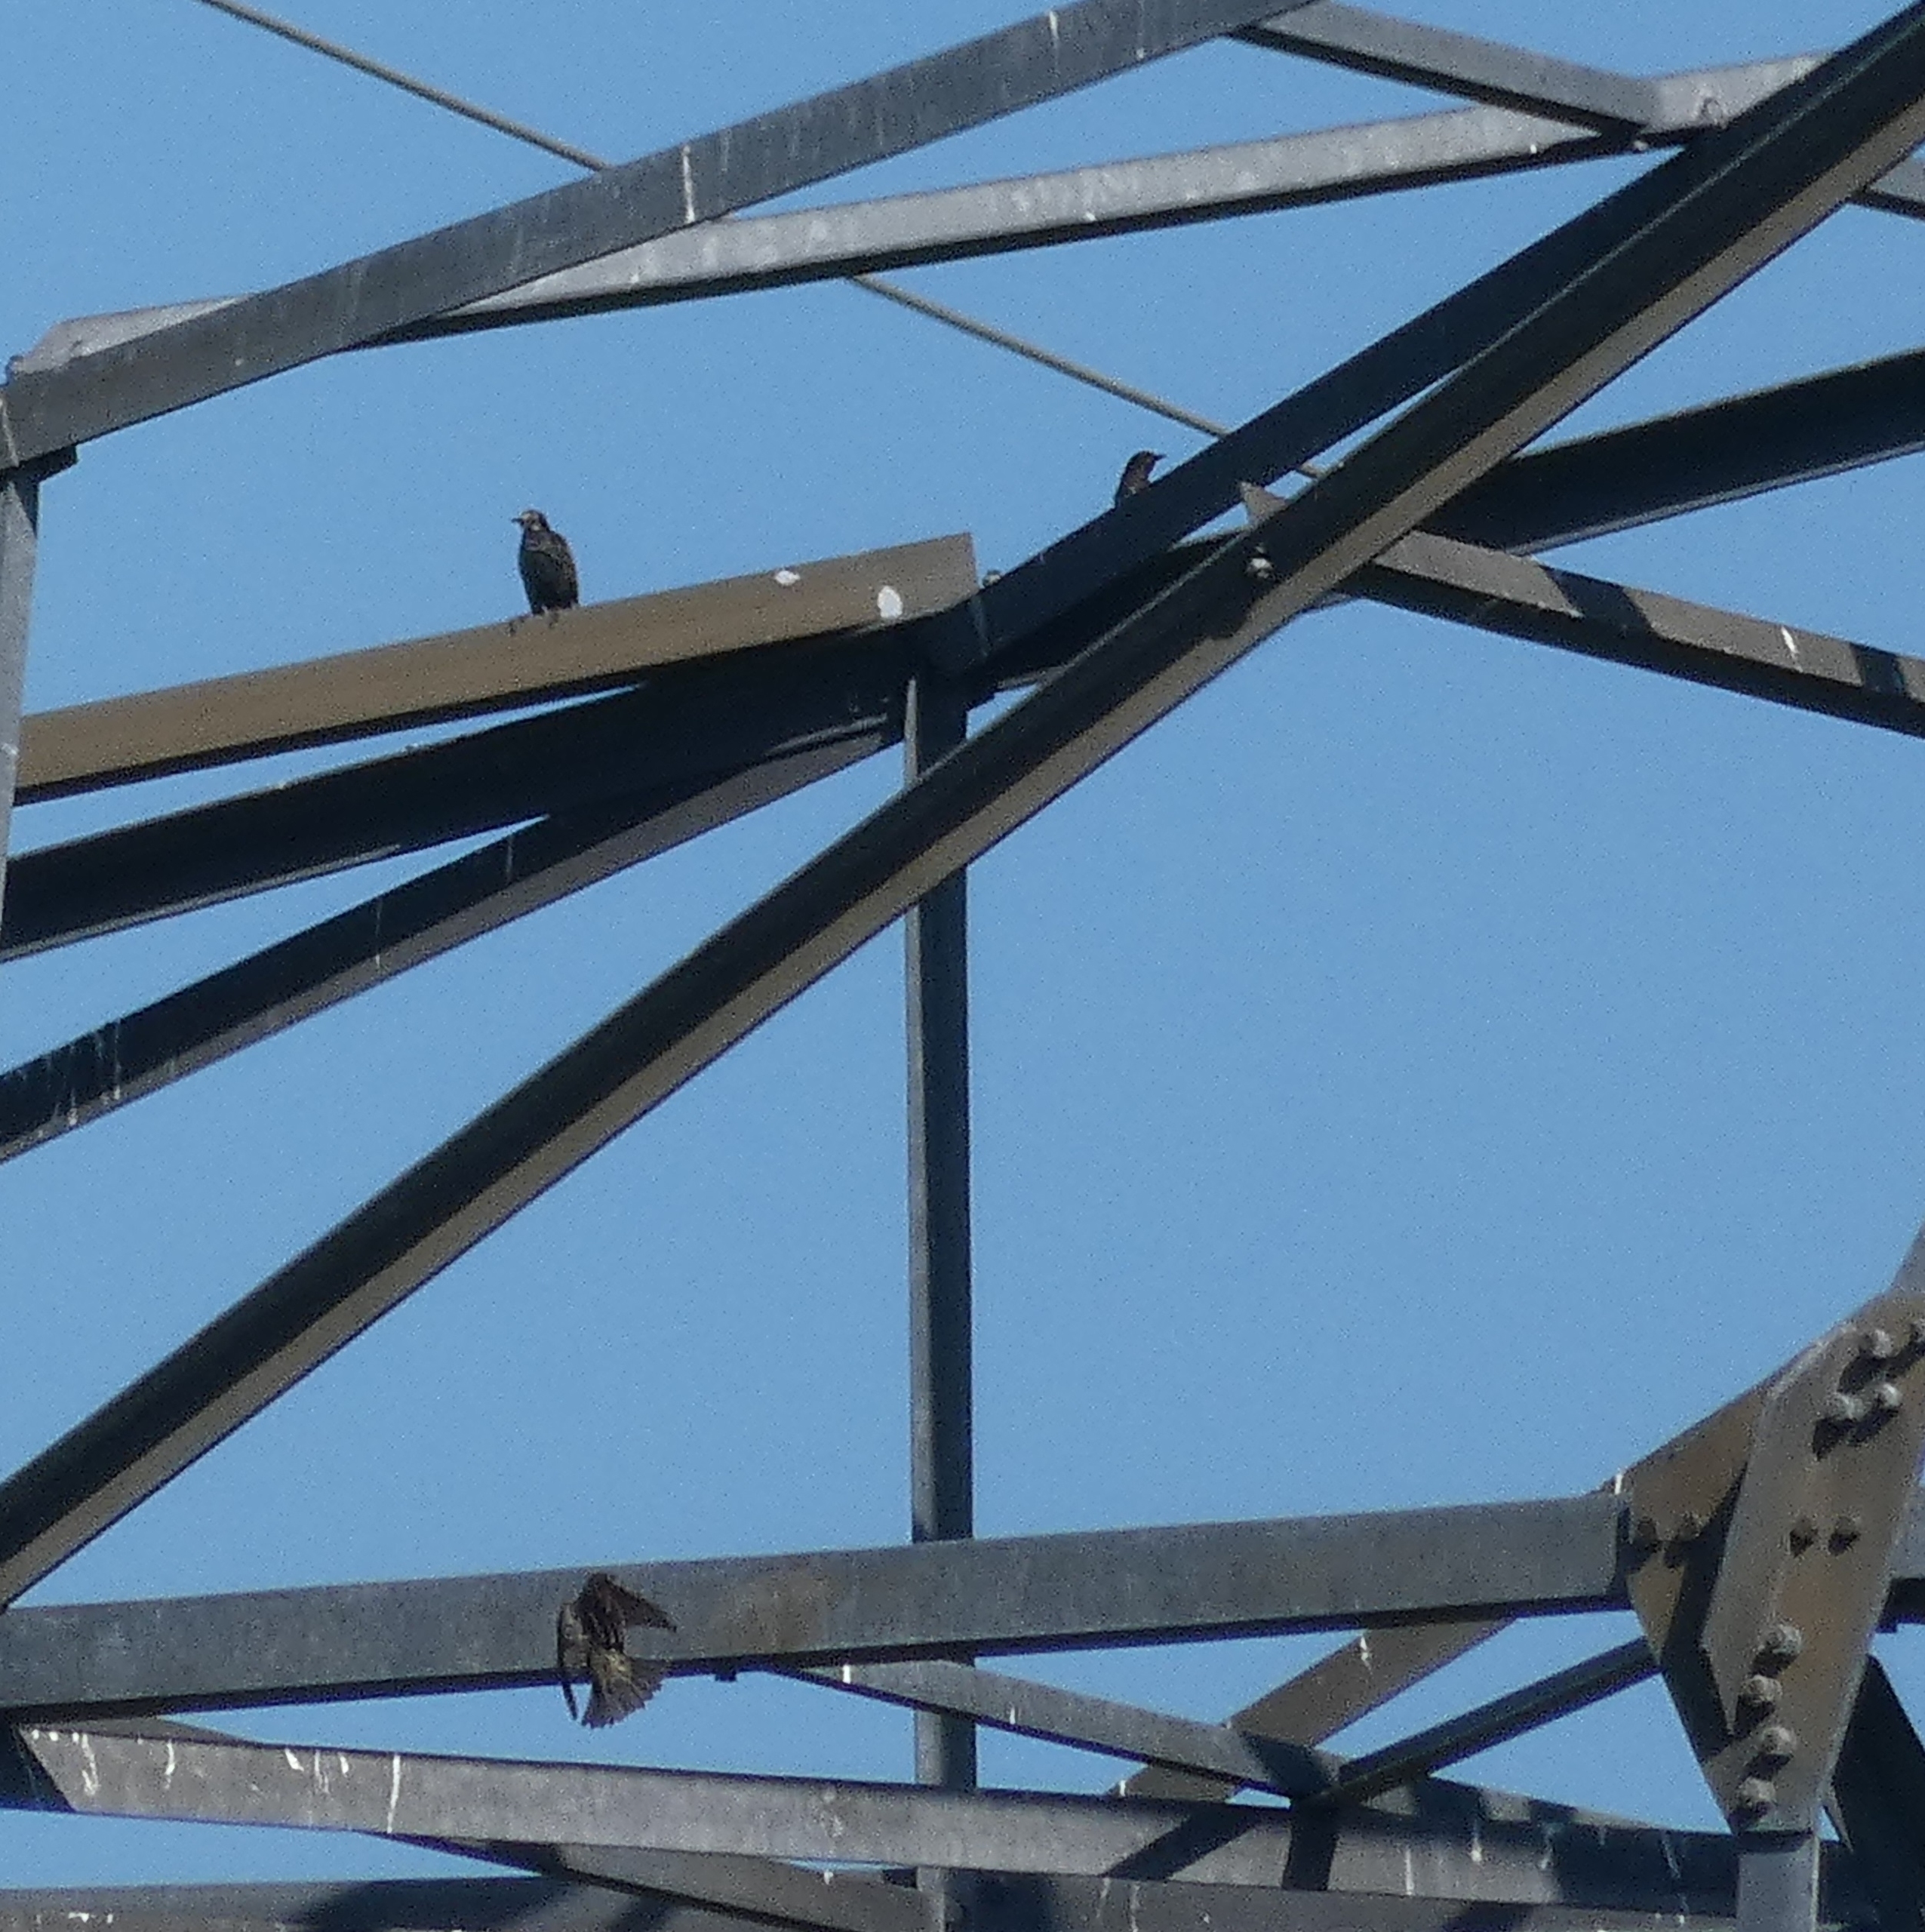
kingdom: Animalia
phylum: Chordata
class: Aves
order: Passeriformes
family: Sturnidae
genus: Sturnus
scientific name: Sturnus vulgaris
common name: Stær
